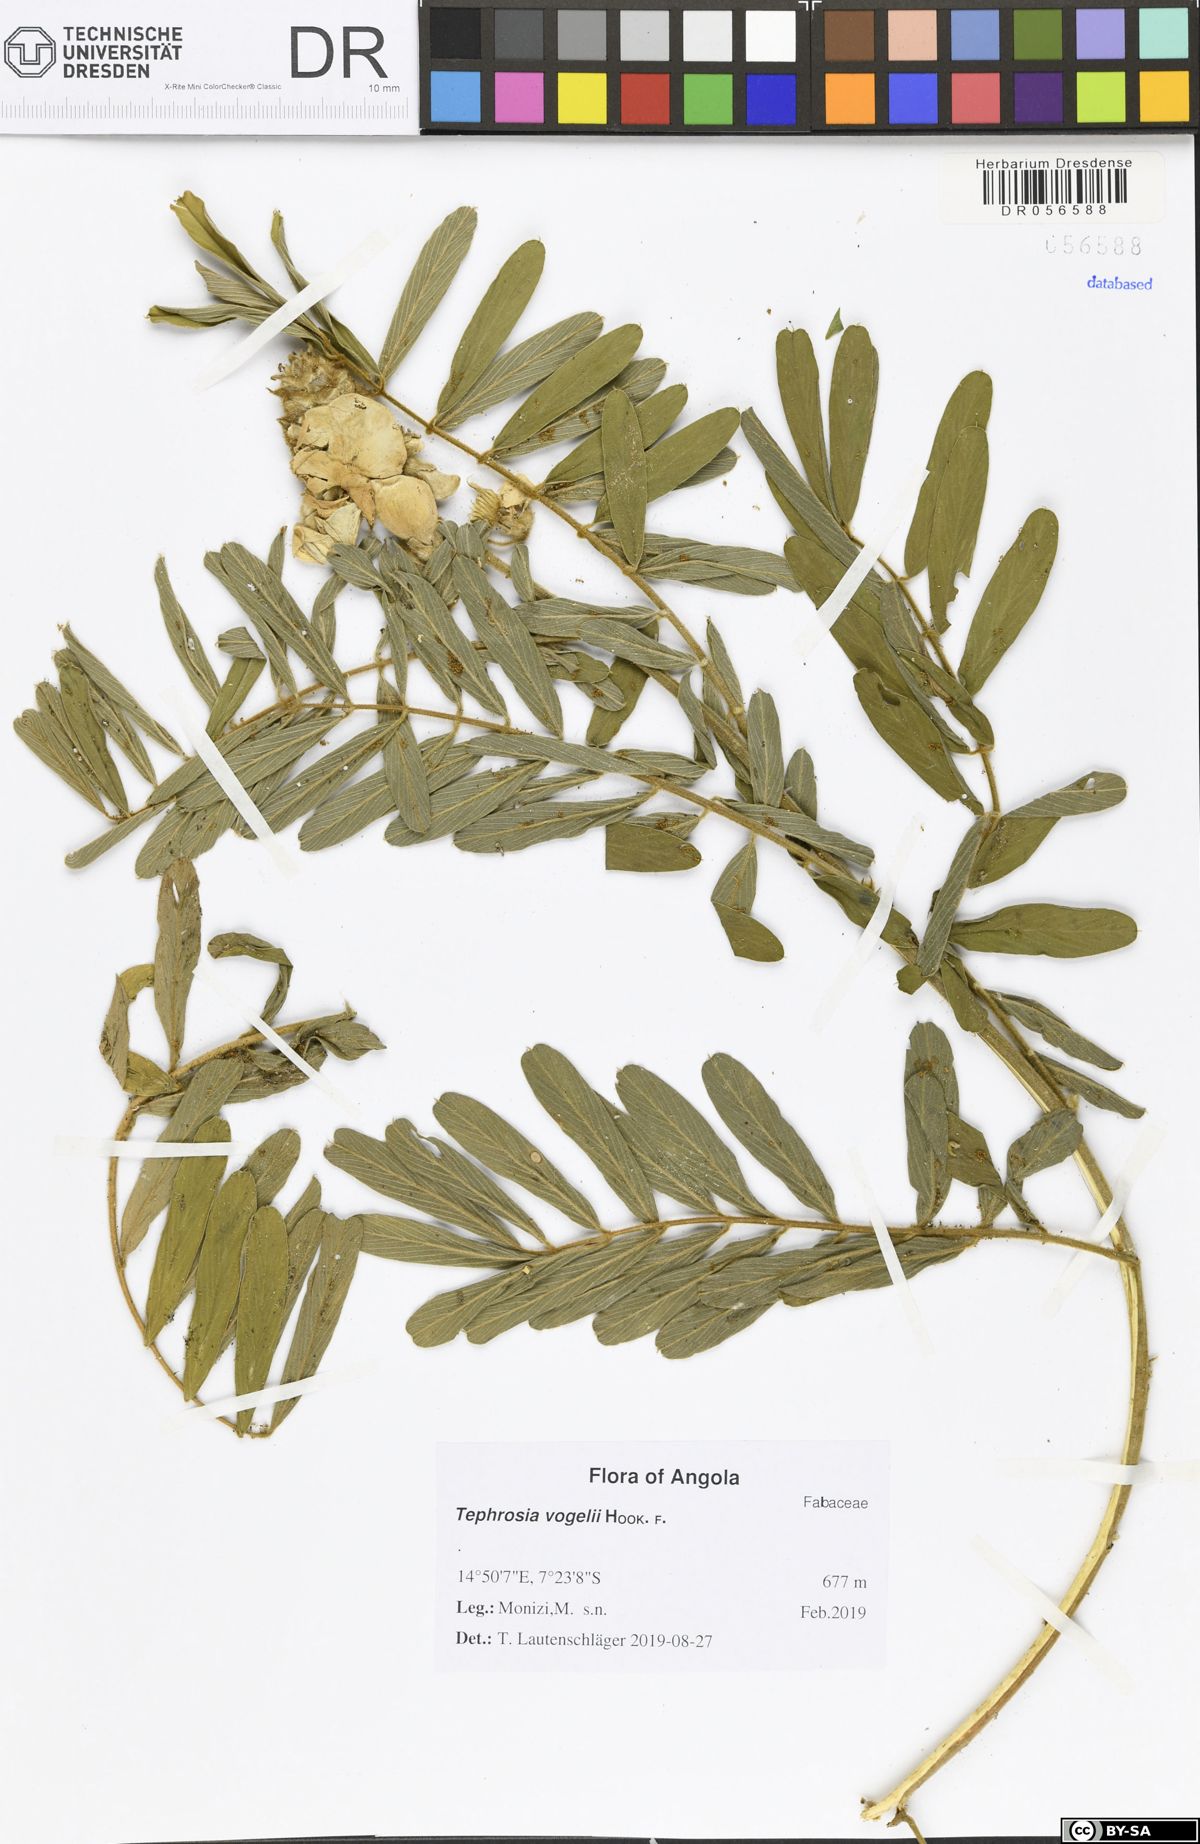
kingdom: Plantae
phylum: Tracheophyta
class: Magnoliopsida
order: Fabales
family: Fabaceae
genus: Tephrosia
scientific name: Tephrosia vogelii
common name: Vogel tephrosia
